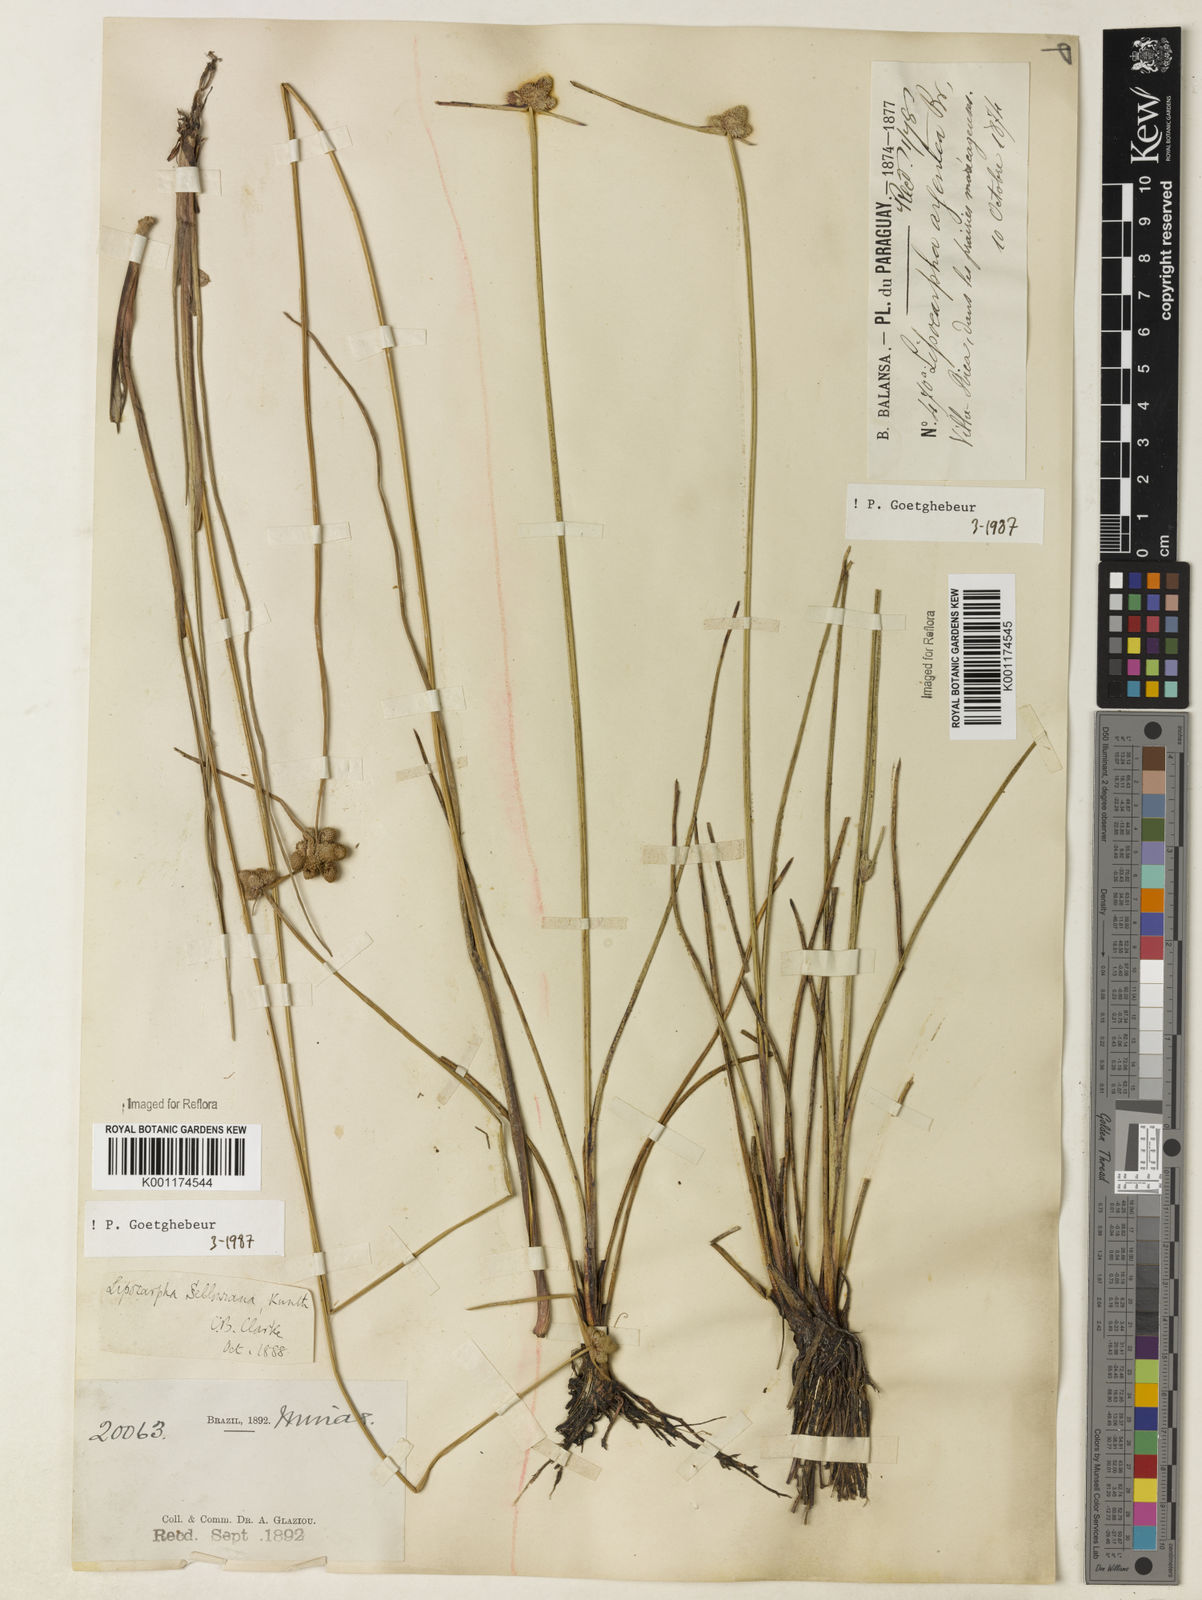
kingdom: Plantae
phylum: Tracheophyta
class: Liliopsida
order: Poales
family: Cyperaceae
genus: Cyperus
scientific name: Cyperus lanceolatus
